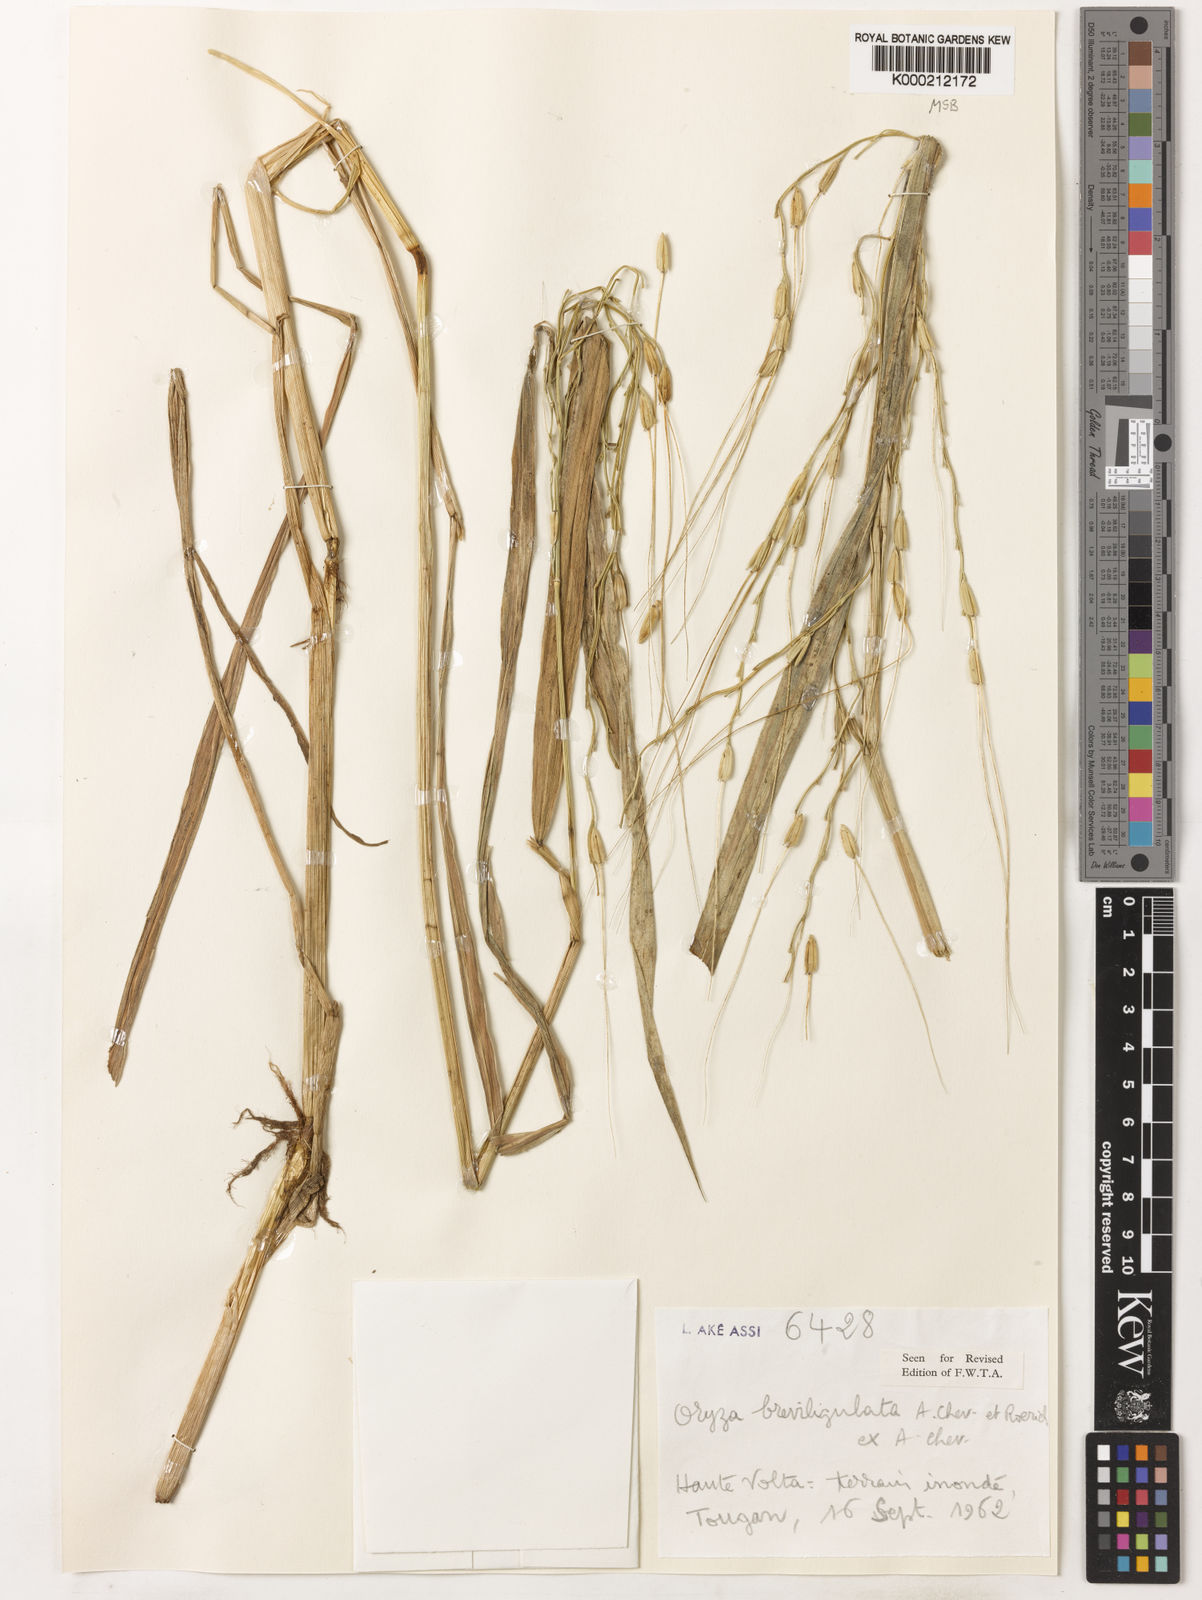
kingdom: Plantae
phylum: Tracheophyta
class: Liliopsida
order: Poales
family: Poaceae
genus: Oryza
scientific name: Oryza barthii
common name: Wild rice
